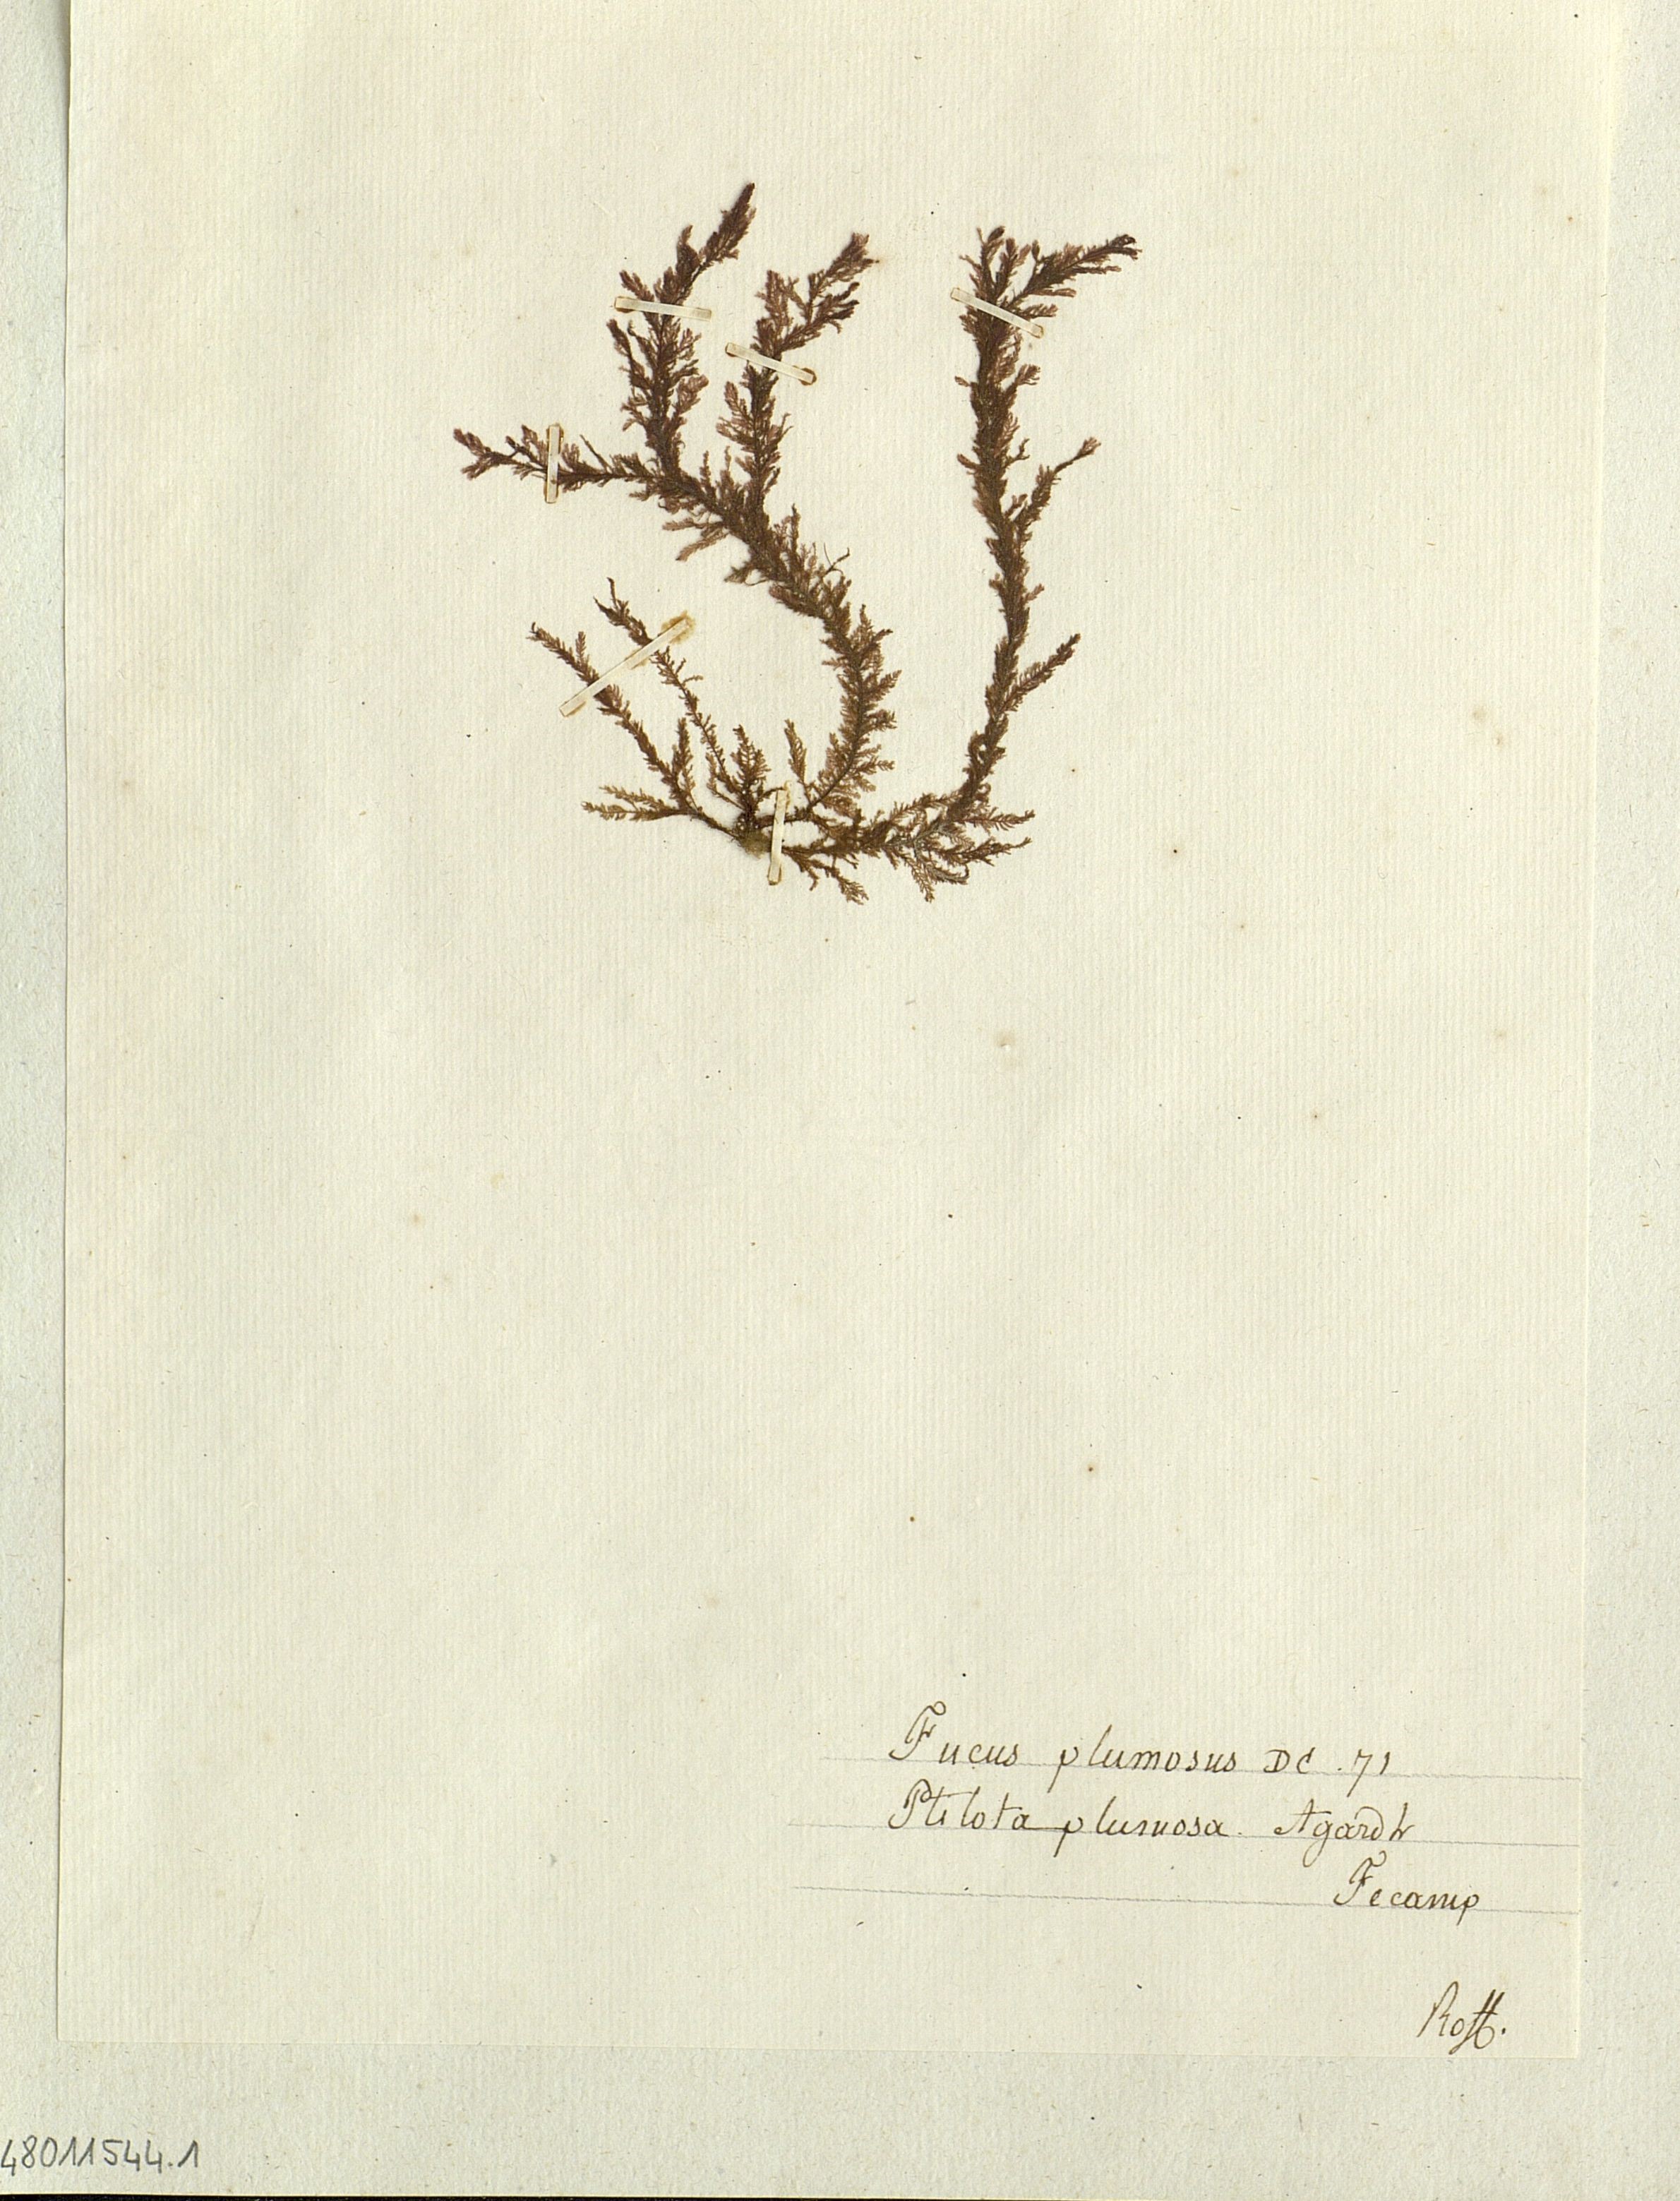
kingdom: Chromista
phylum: Ochrophyta
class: Phaeophyceae
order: Fucales
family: Fucaceae
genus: Fucus
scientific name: Fucus
